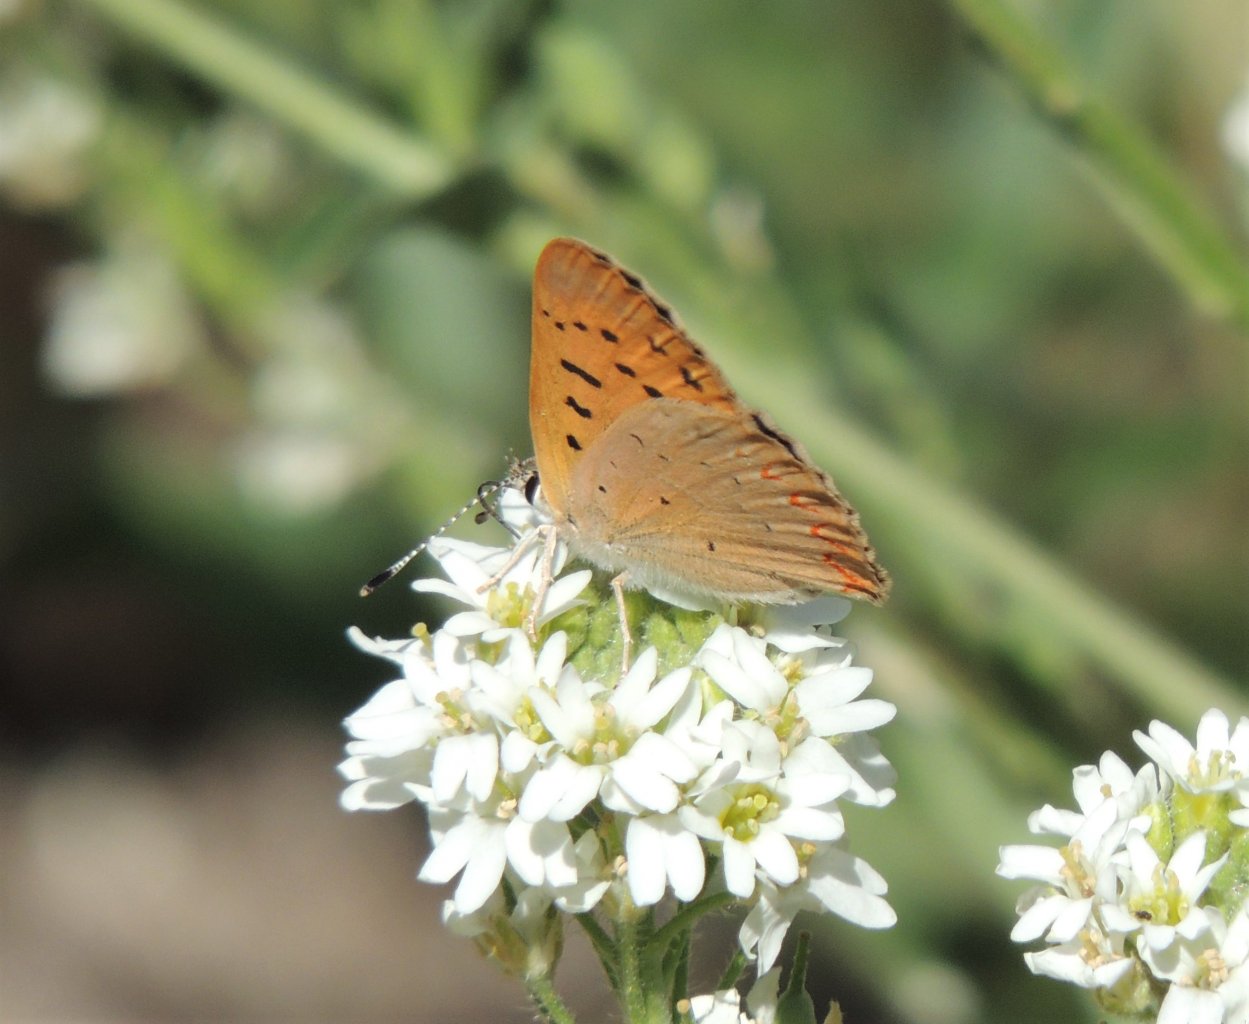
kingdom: Animalia
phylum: Arthropoda
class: Insecta
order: Lepidoptera
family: Sesiidae
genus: Sesia
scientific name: Sesia Lycaena helloides
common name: Purplish Copper
